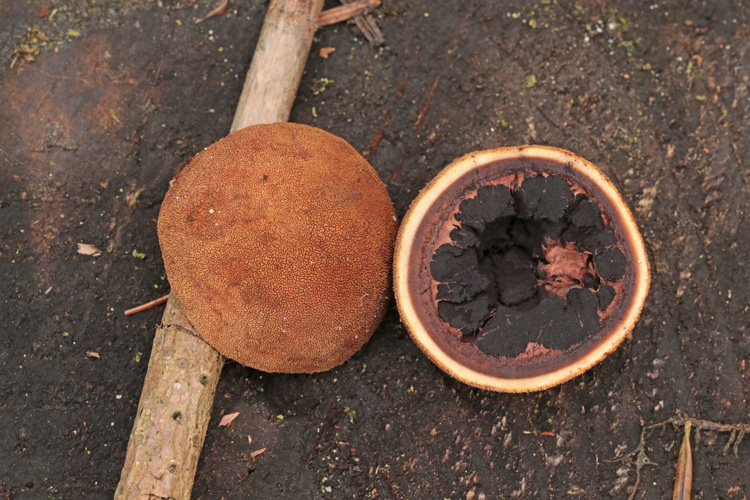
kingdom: Fungi
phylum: Ascomycota
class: Eurotiomycetes
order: Eurotiales
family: Elaphomycetaceae
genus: Elaphomyces
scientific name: Elaphomyces muricatus
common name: vortet hjortetrøffel
